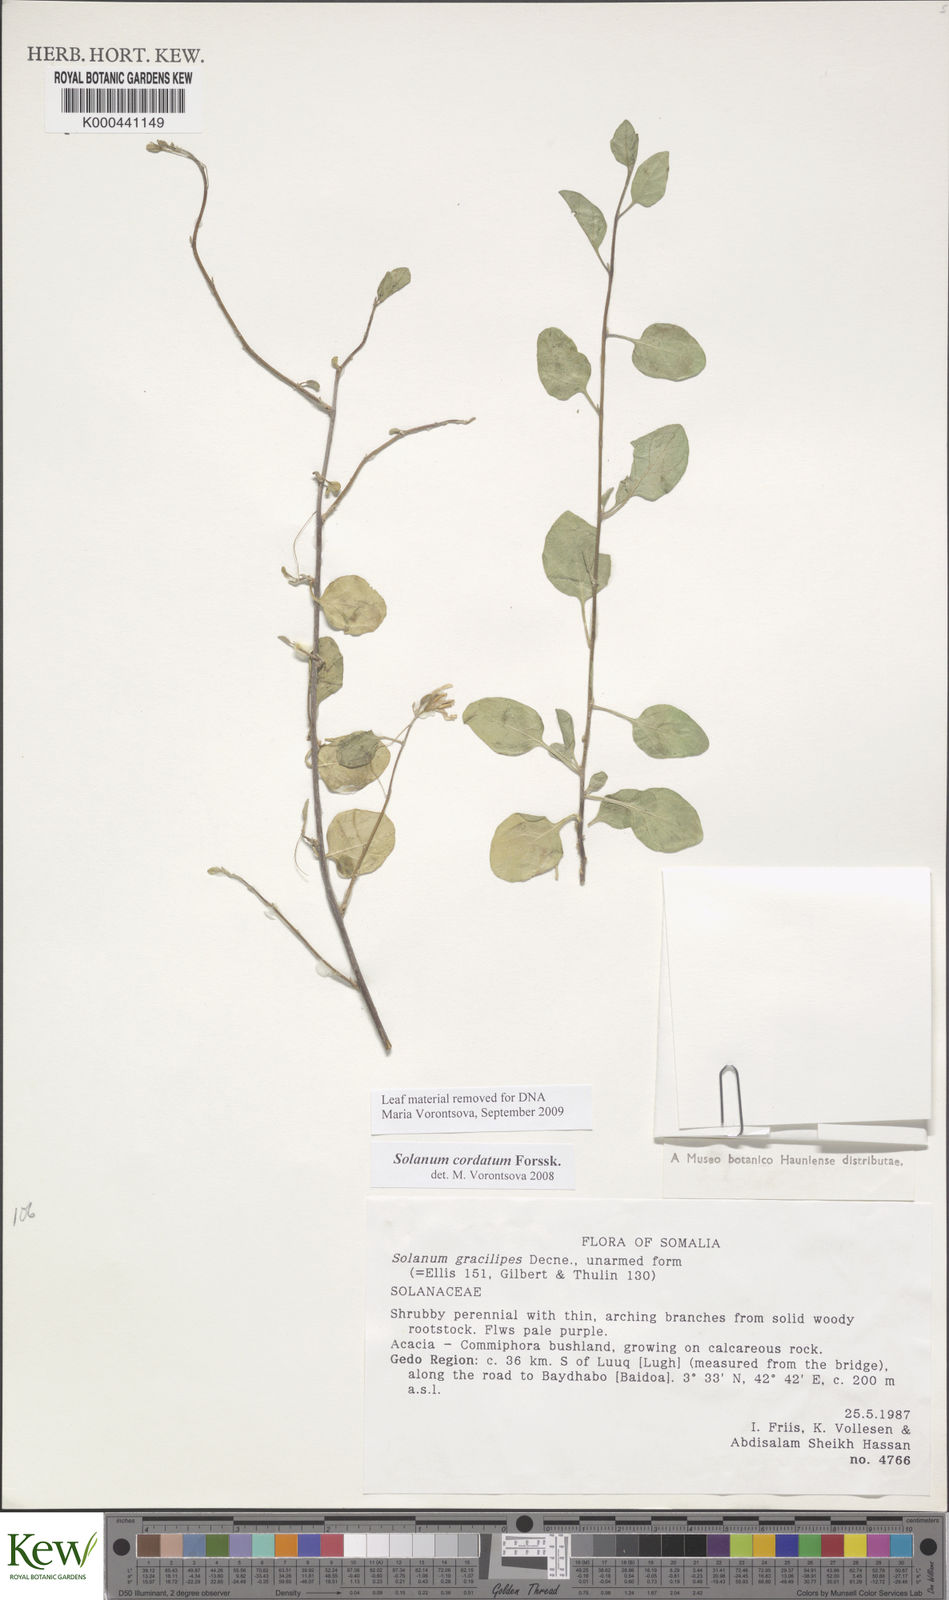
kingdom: Plantae
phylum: Tracheophyta
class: Magnoliopsida
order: Solanales
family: Solanaceae
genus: Solanum
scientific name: Solanum cordatum
